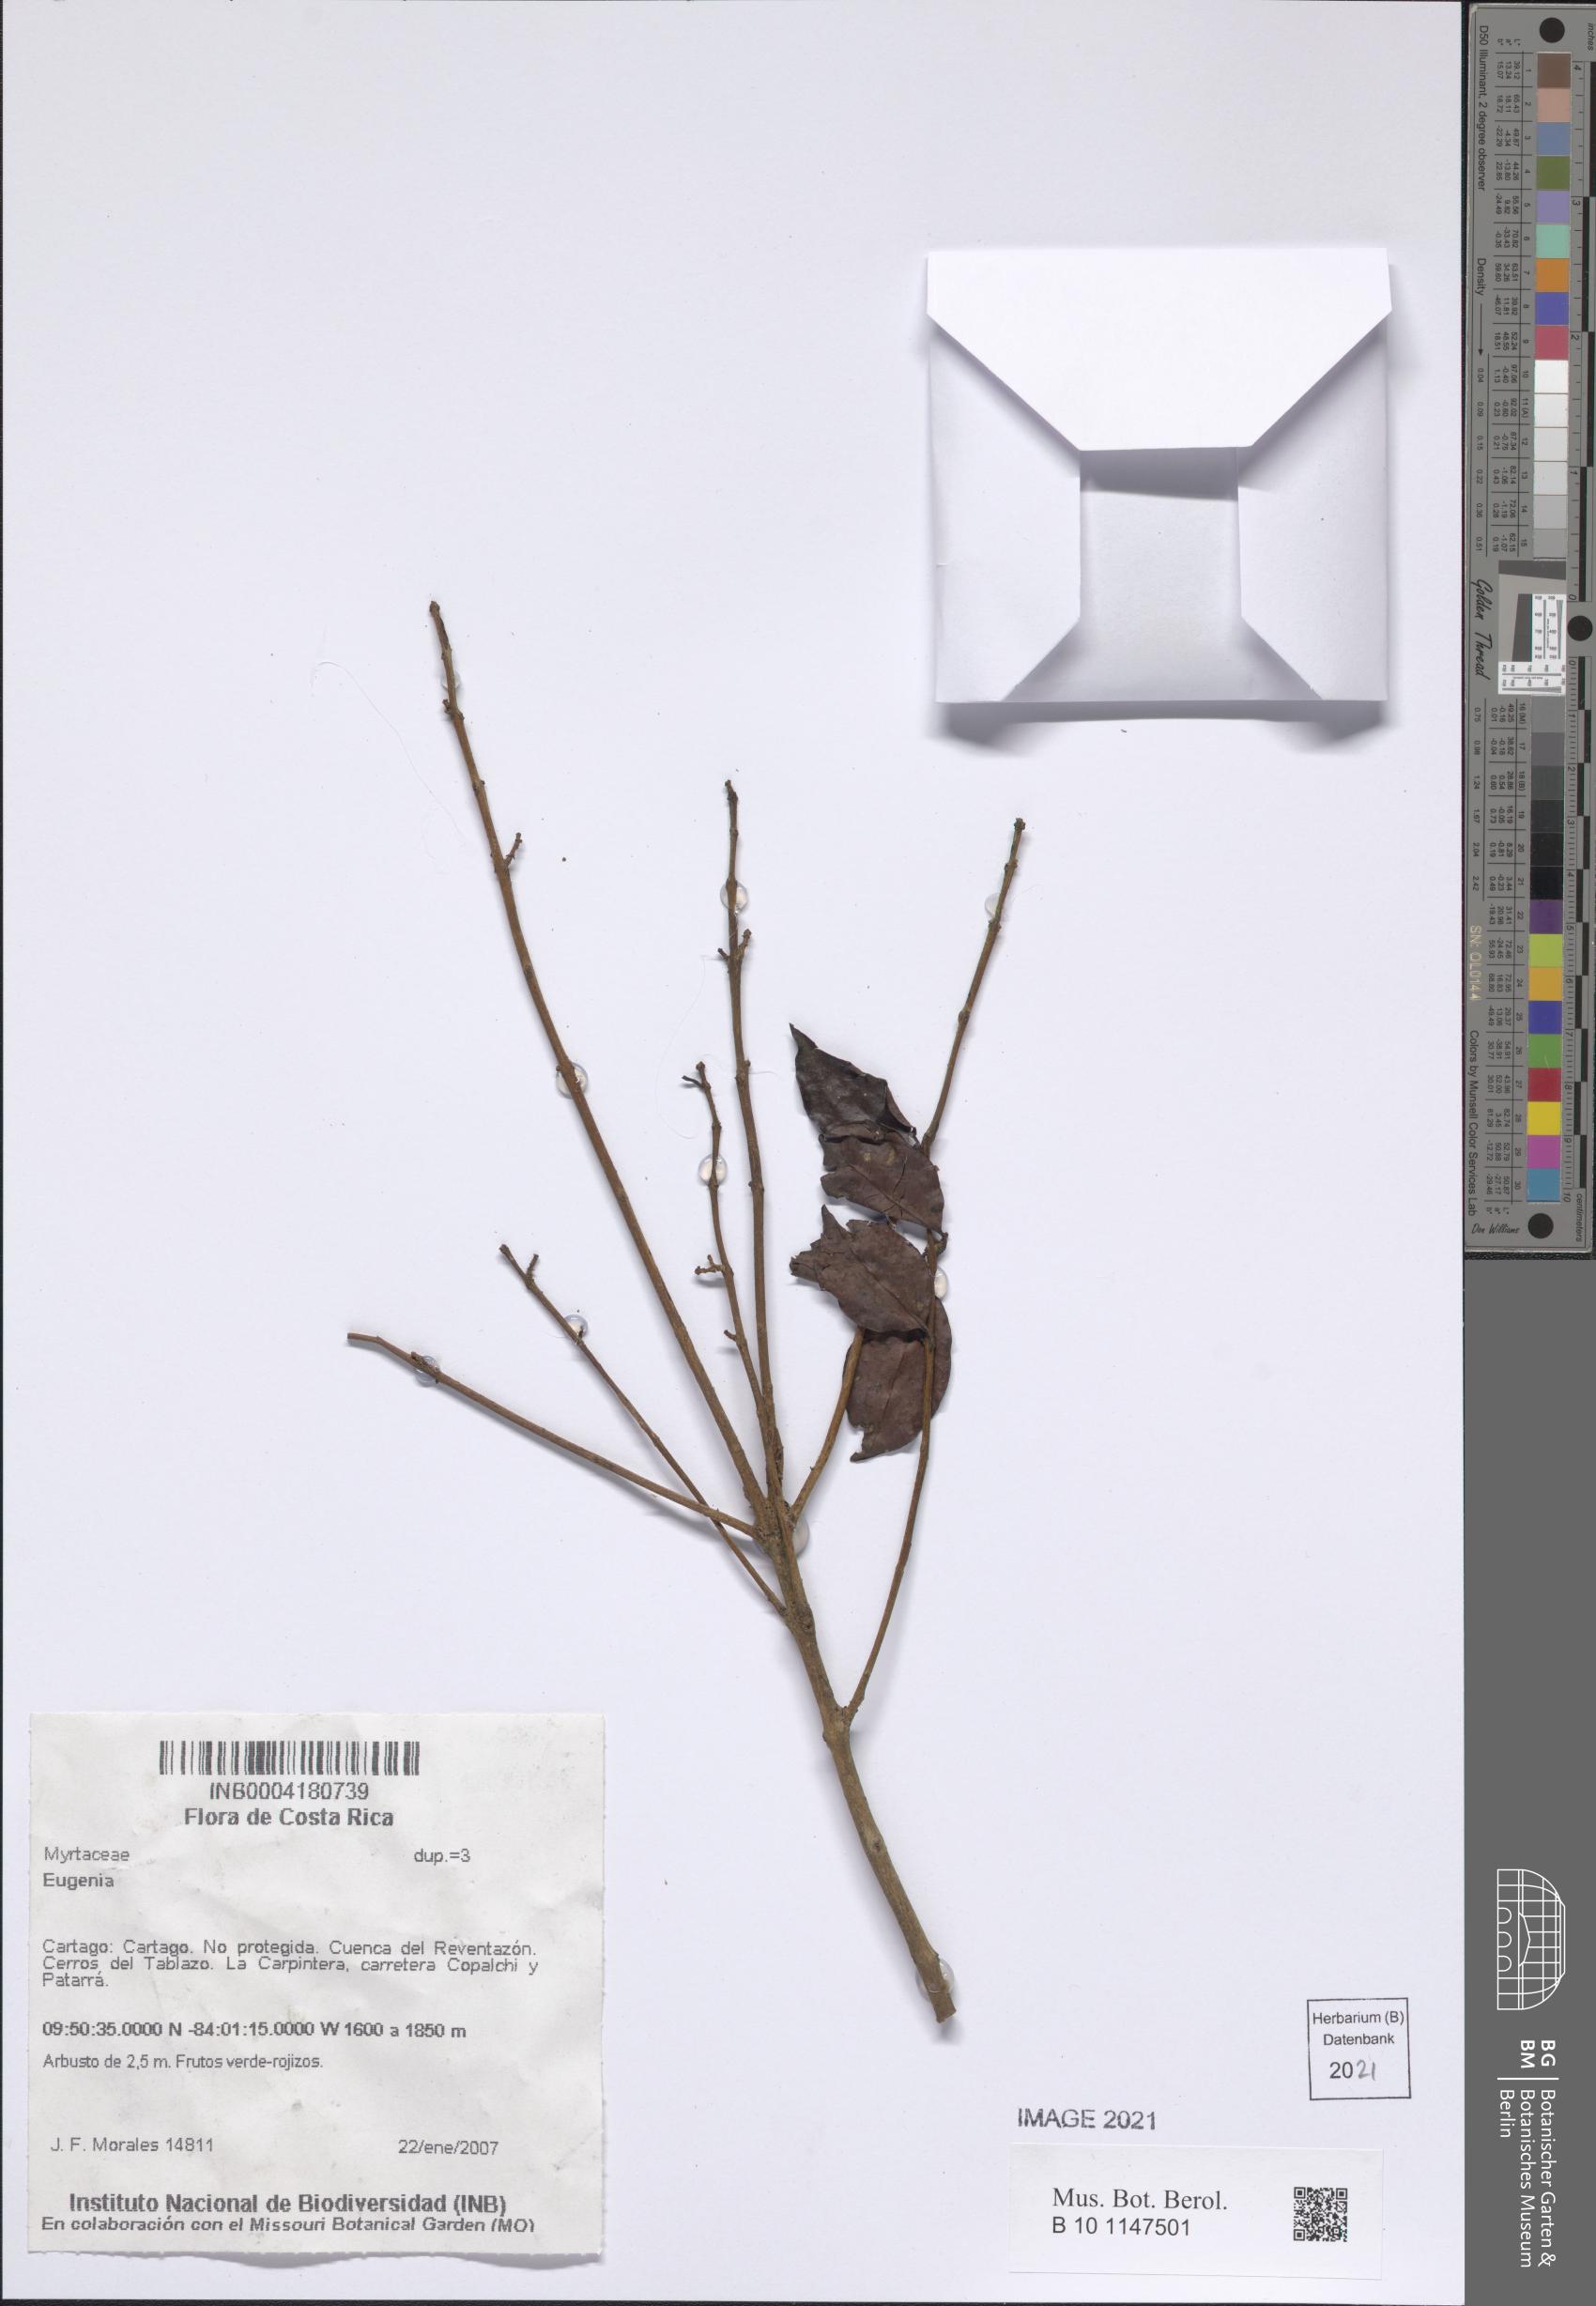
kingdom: Plantae
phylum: Tracheophyta
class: Magnoliopsida
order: Myrtales
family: Myrtaceae
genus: Eugenia
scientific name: Eugenia
